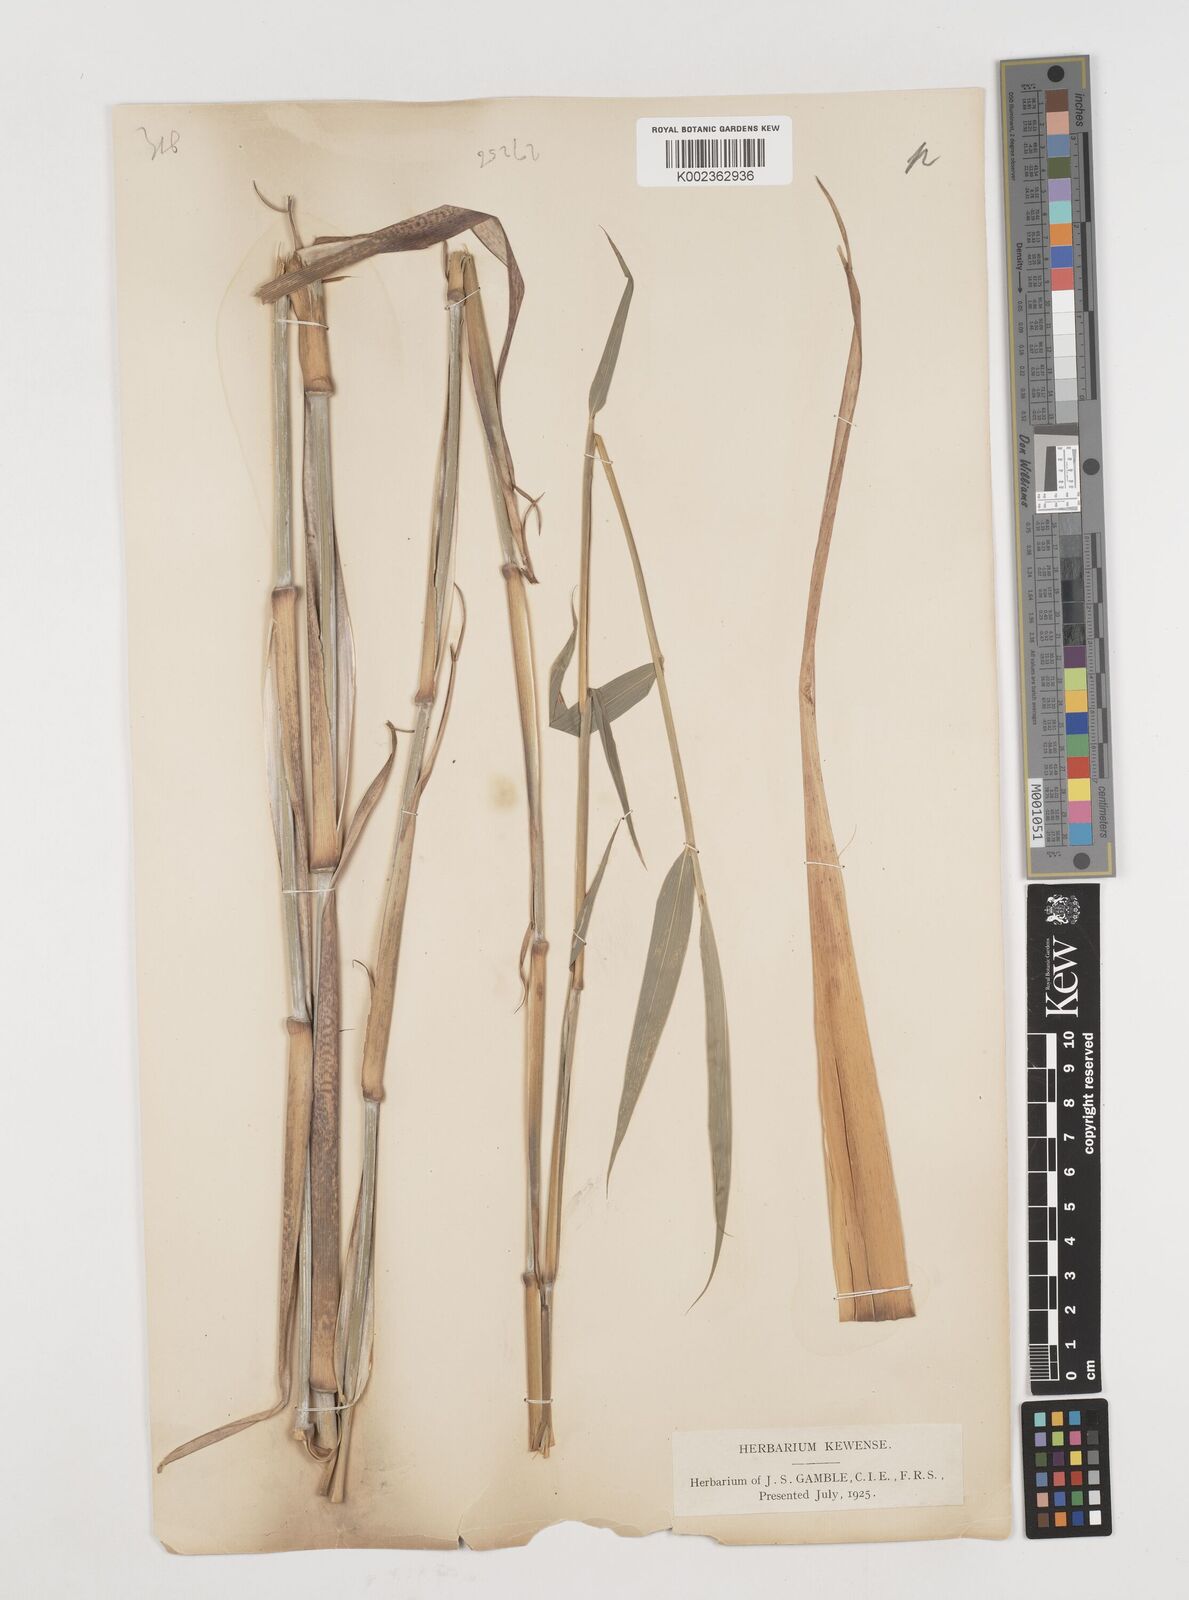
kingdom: Plantae
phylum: Tracheophyta
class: Liliopsida
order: Poales
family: Poaceae
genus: Drepanostachyum
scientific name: Drepanostachyum falcatum
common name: Himalayan bamboo
